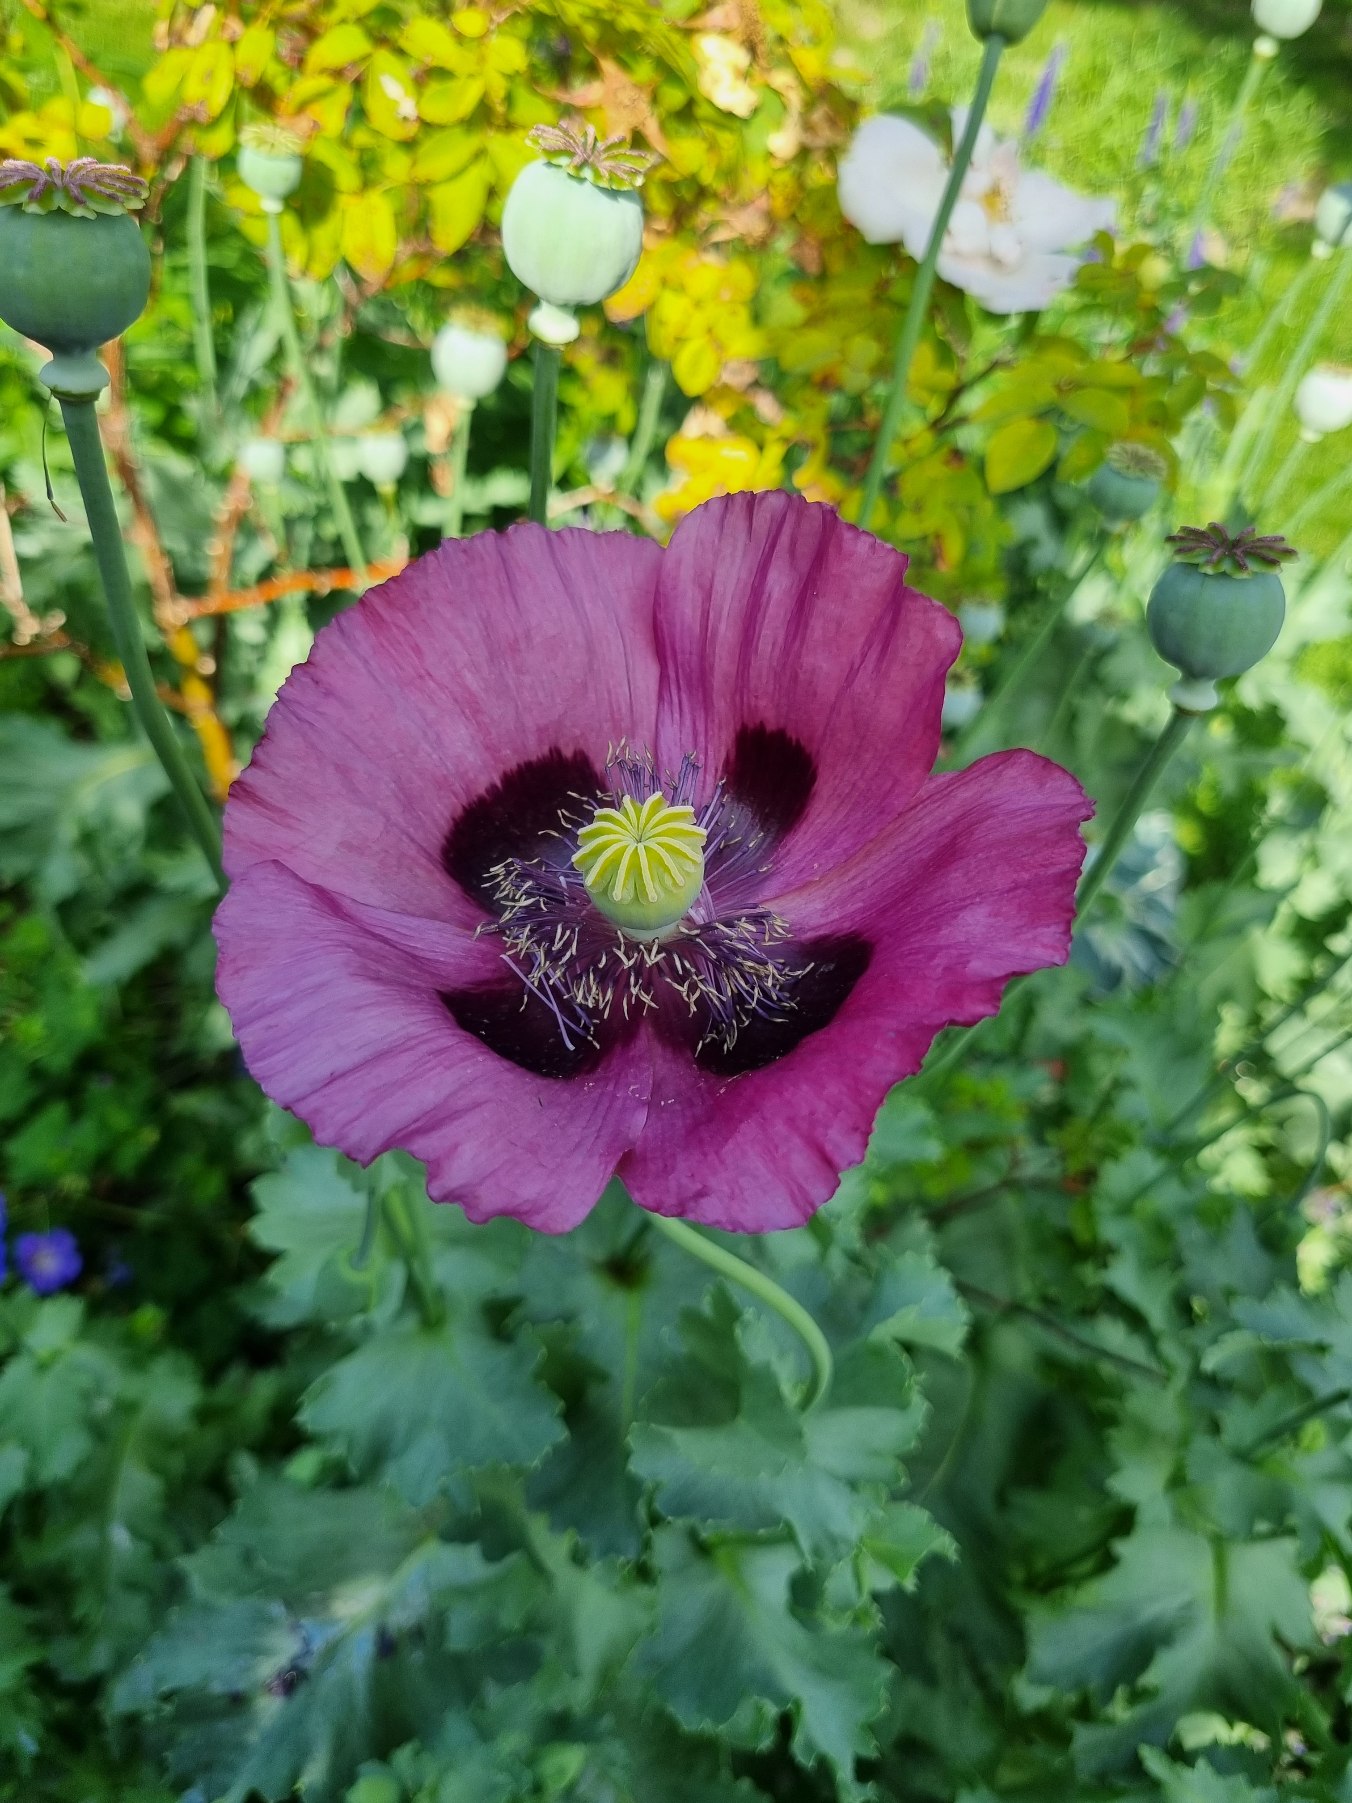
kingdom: Plantae
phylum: Tracheophyta
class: Magnoliopsida
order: Ranunculales
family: Papaveraceae
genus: Papaver
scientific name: Papaver somniferum
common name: Opium-valmue
